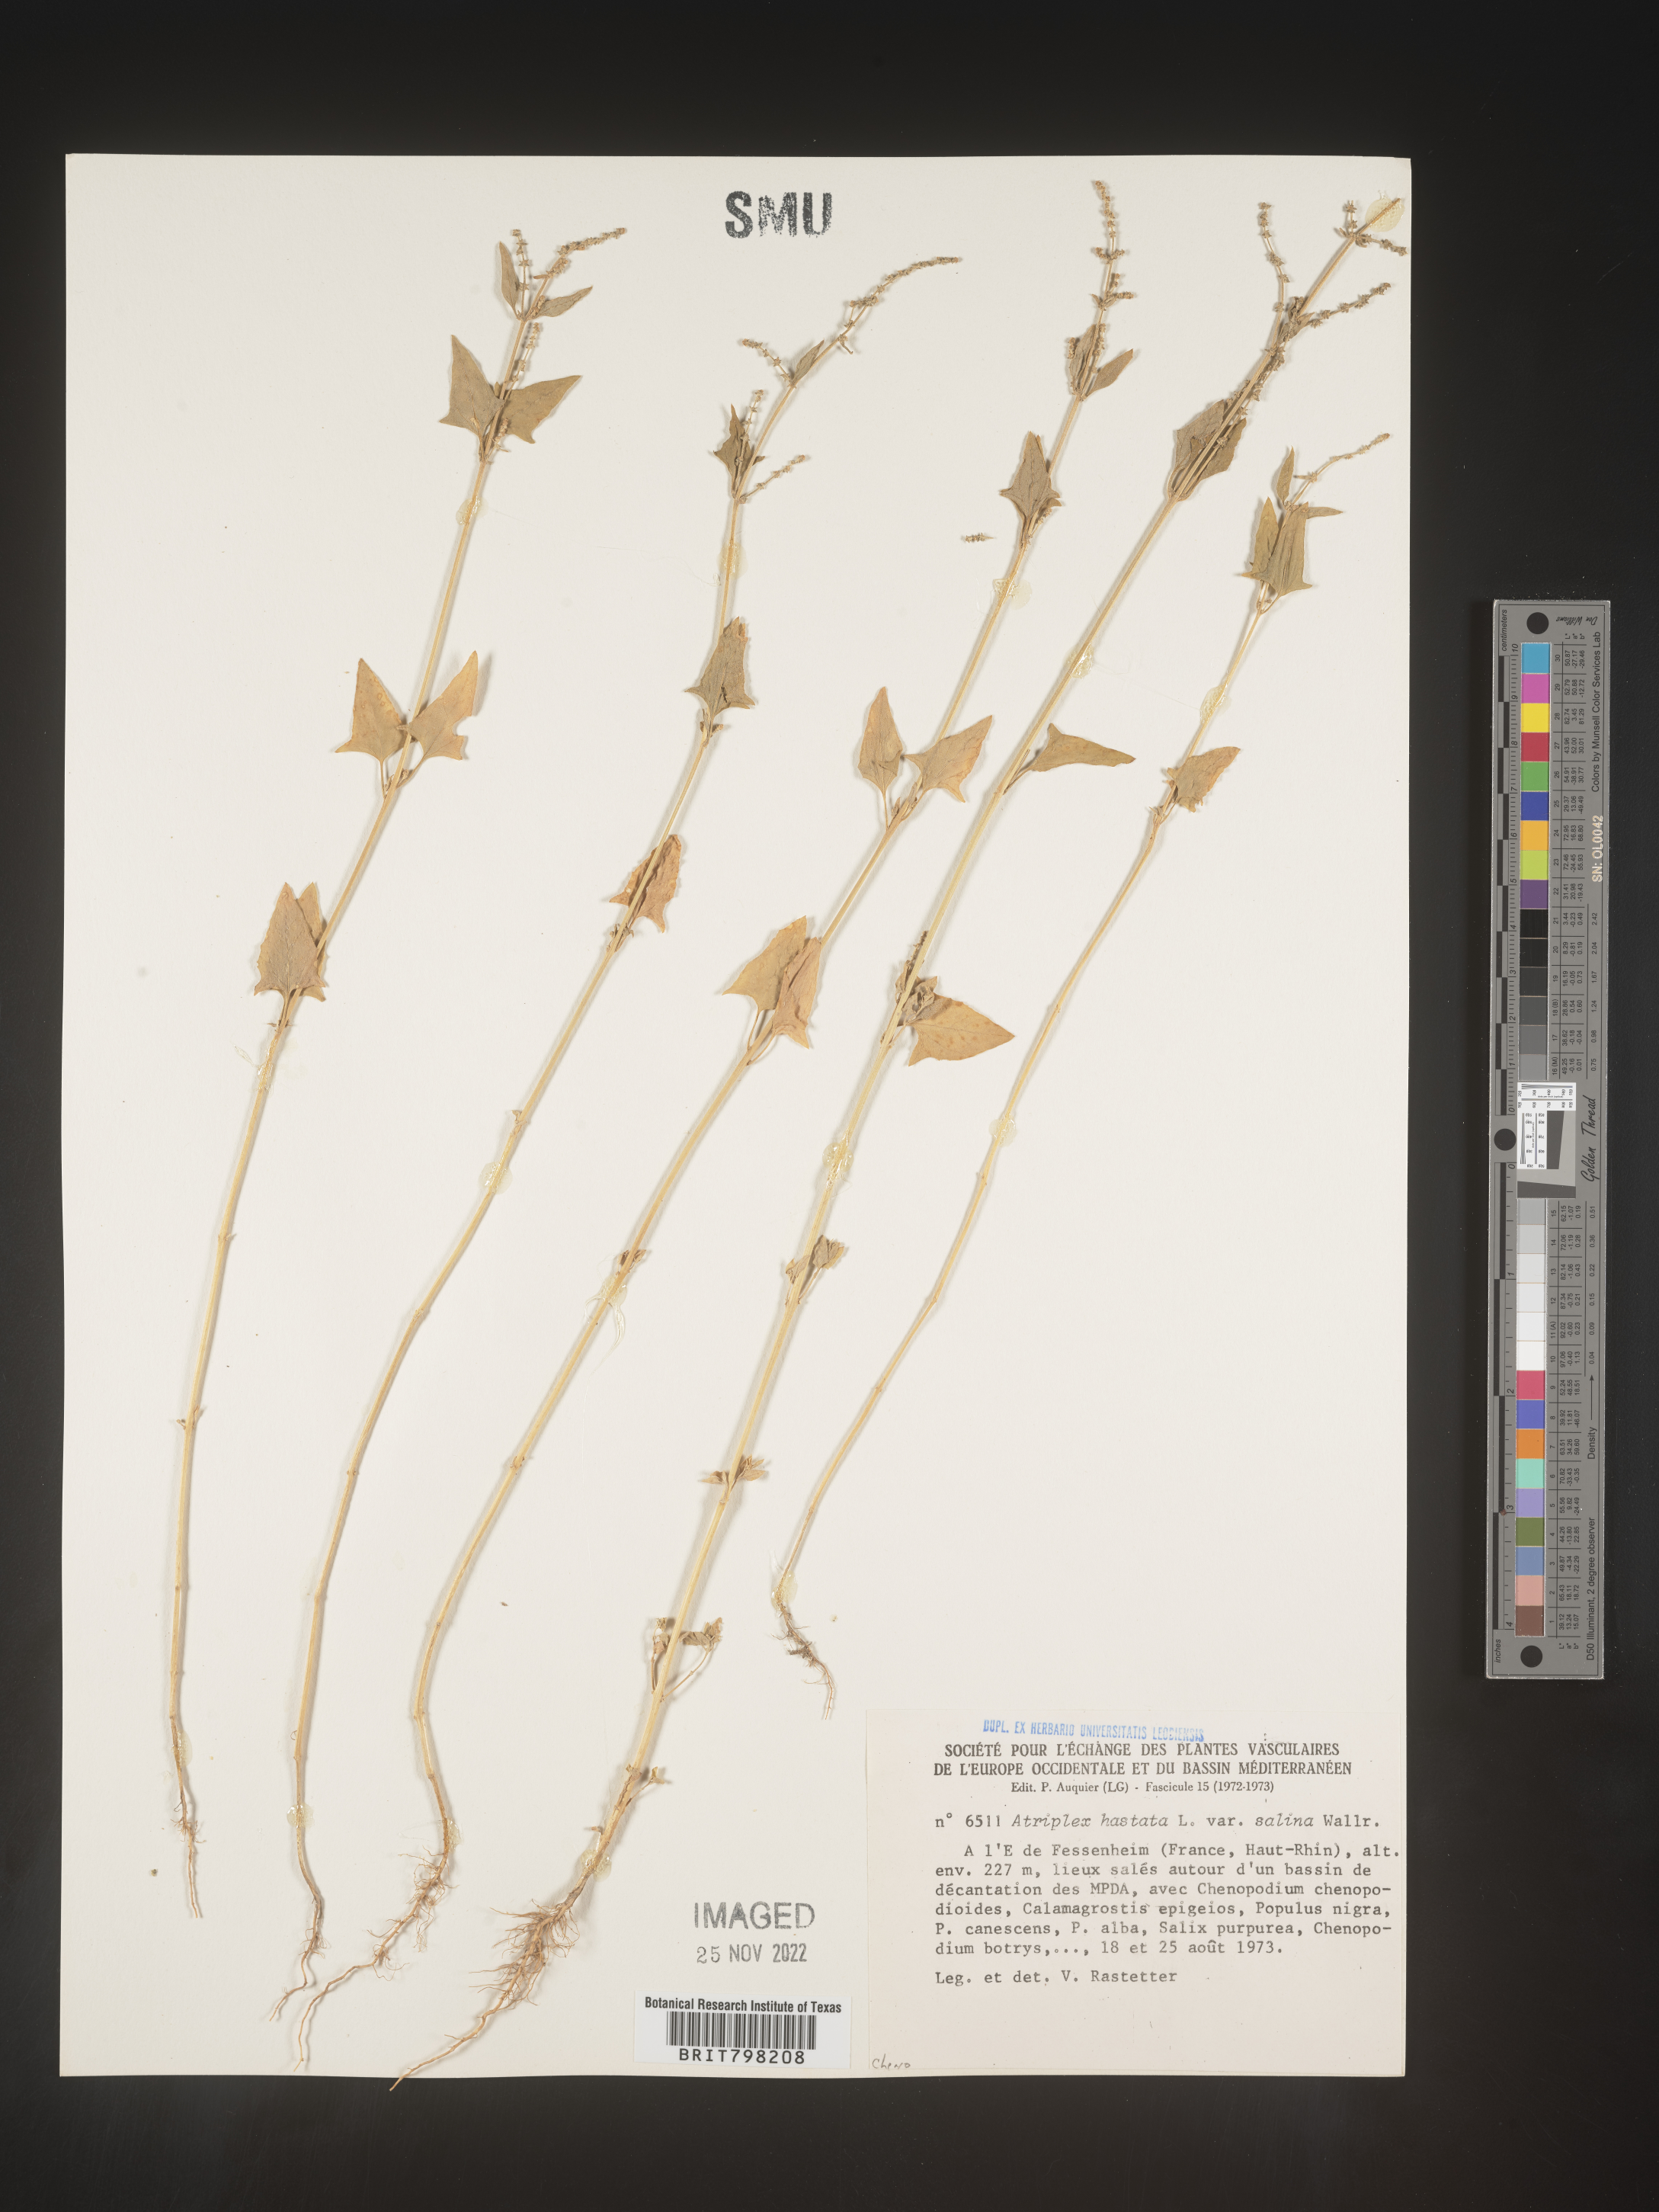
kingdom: Plantae
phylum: Tracheophyta
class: Magnoliopsida
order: Caryophyllales
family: Amaranthaceae
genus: Atriplex
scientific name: Atriplex
